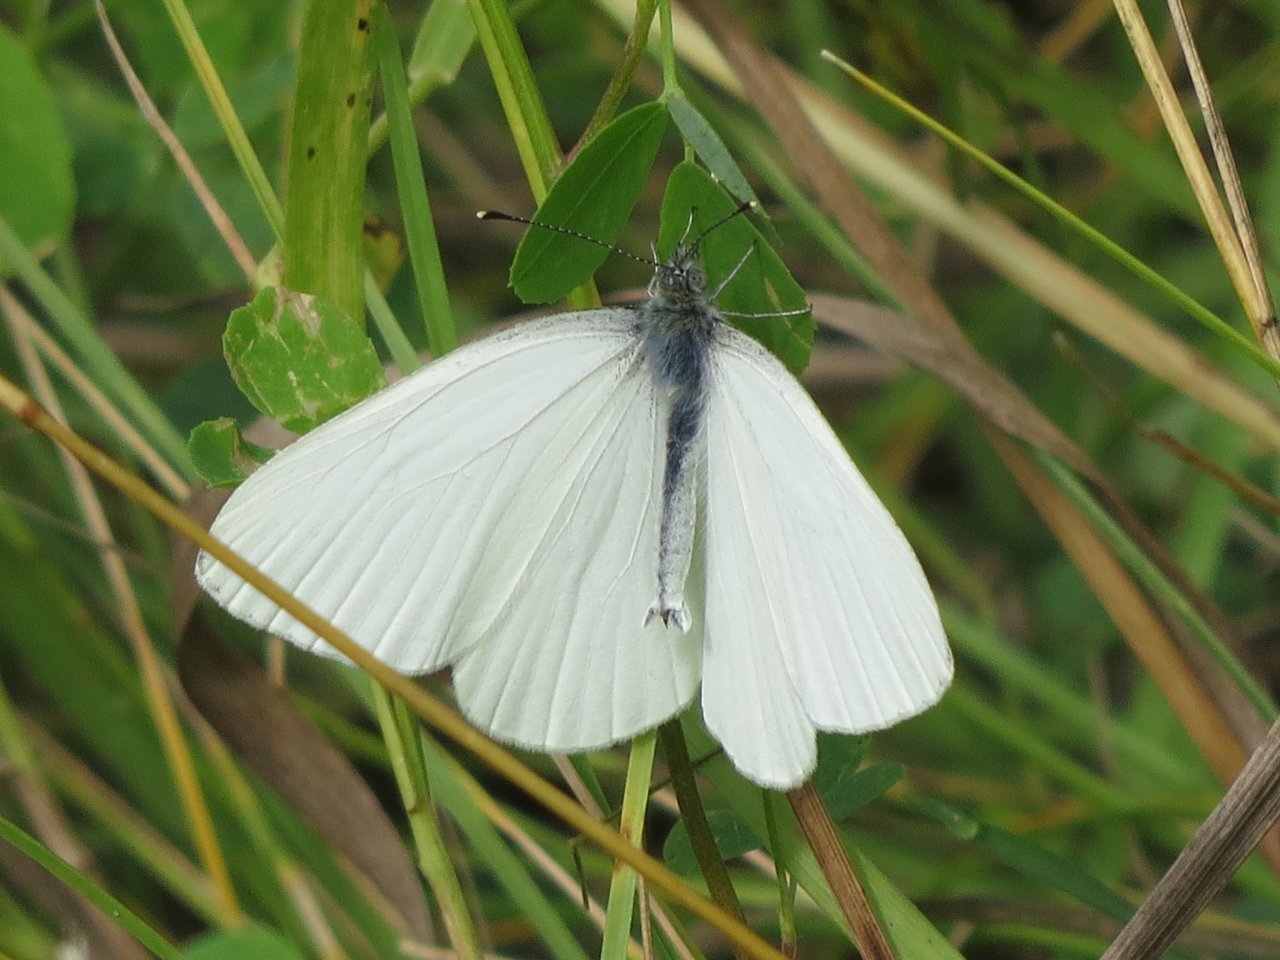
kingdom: Animalia
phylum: Arthropoda
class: Insecta
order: Lepidoptera
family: Pieridae
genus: Pieris
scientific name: Pieris oleracea
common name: Mustard White
